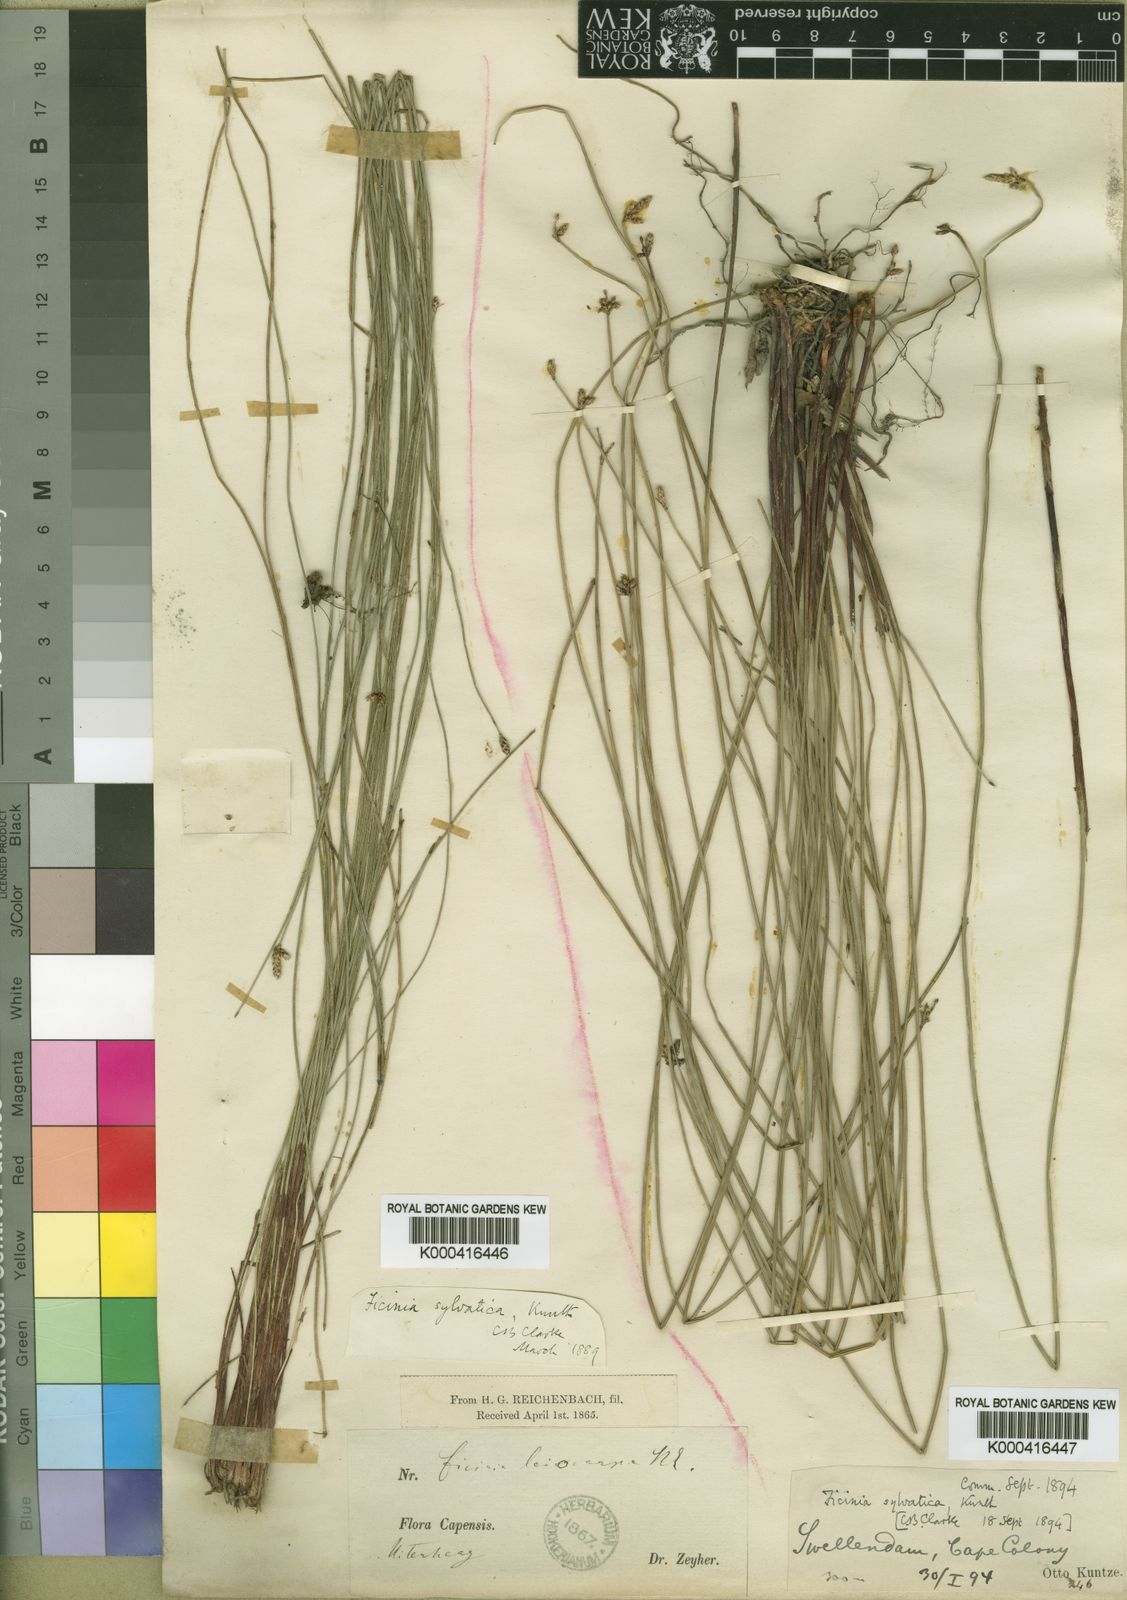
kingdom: Plantae
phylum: Tracheophyta
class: Liliopsida
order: Poales
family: Cyperaceae
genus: Ficinia
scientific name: Ficinia sylvatica
